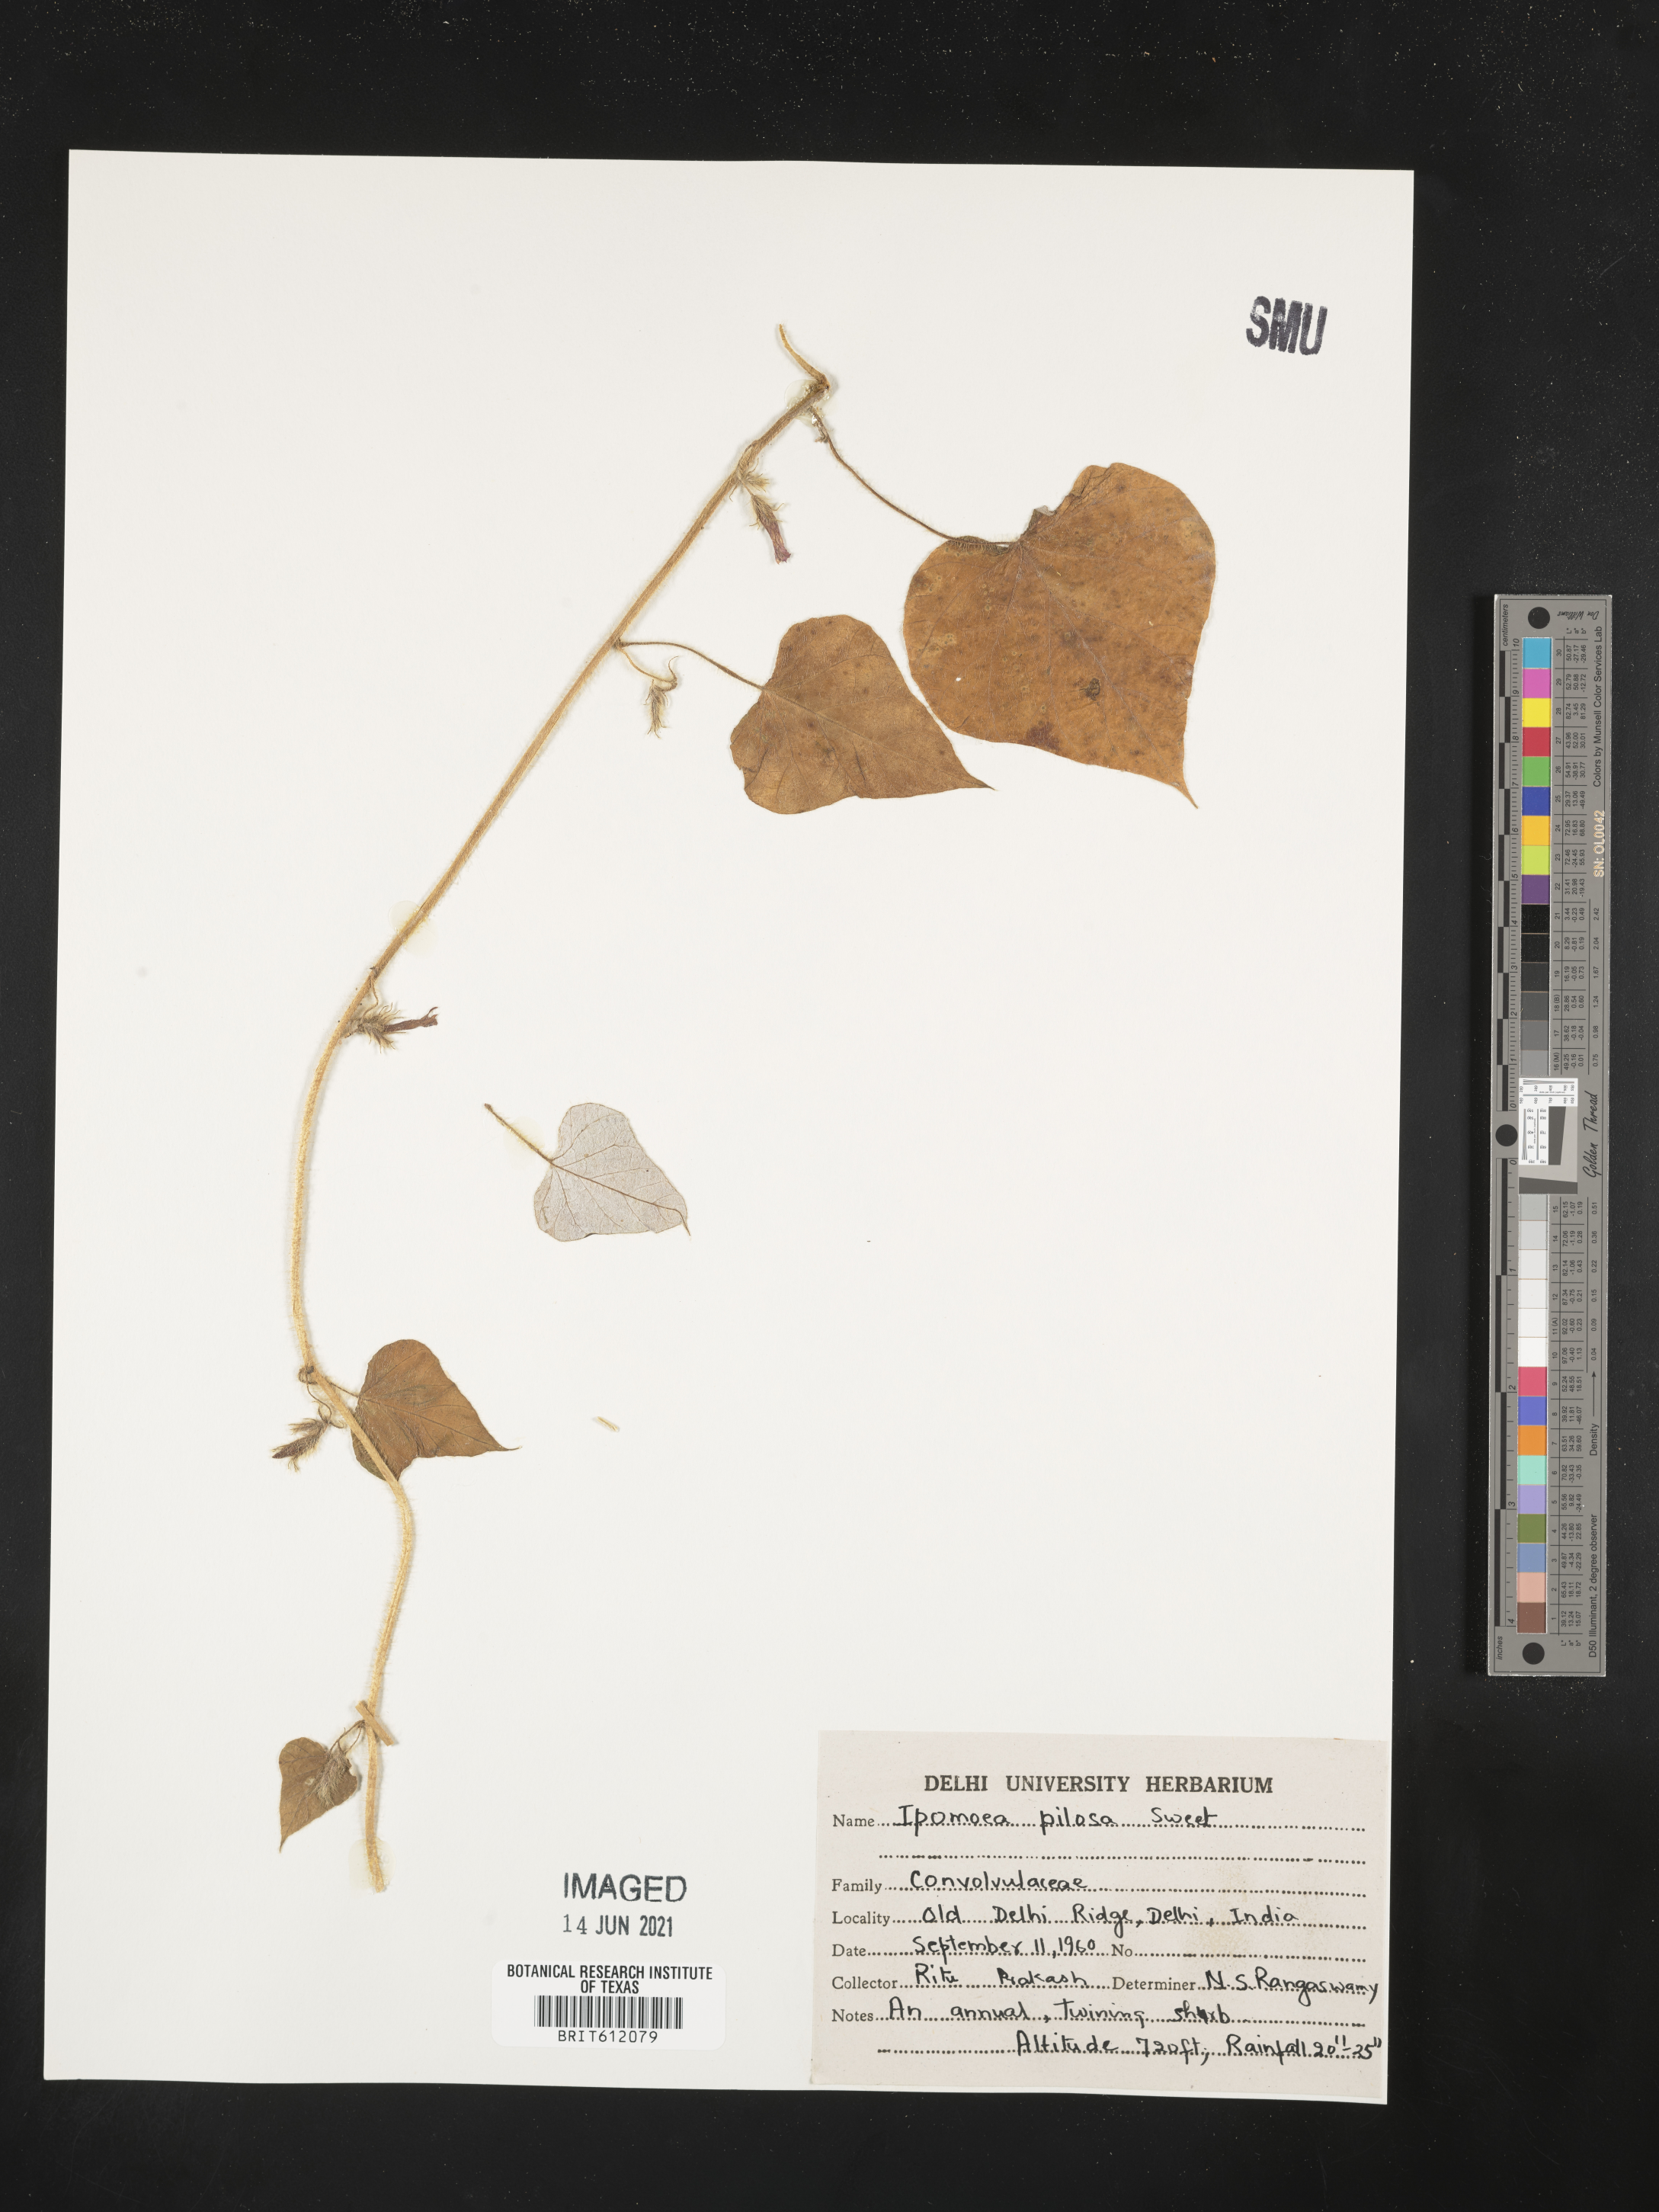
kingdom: Plantae
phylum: Tracheophyta
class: Magnoliopsida
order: Solanales
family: Convolvulaceae
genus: Distimake
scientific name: Distimake aegyptius
